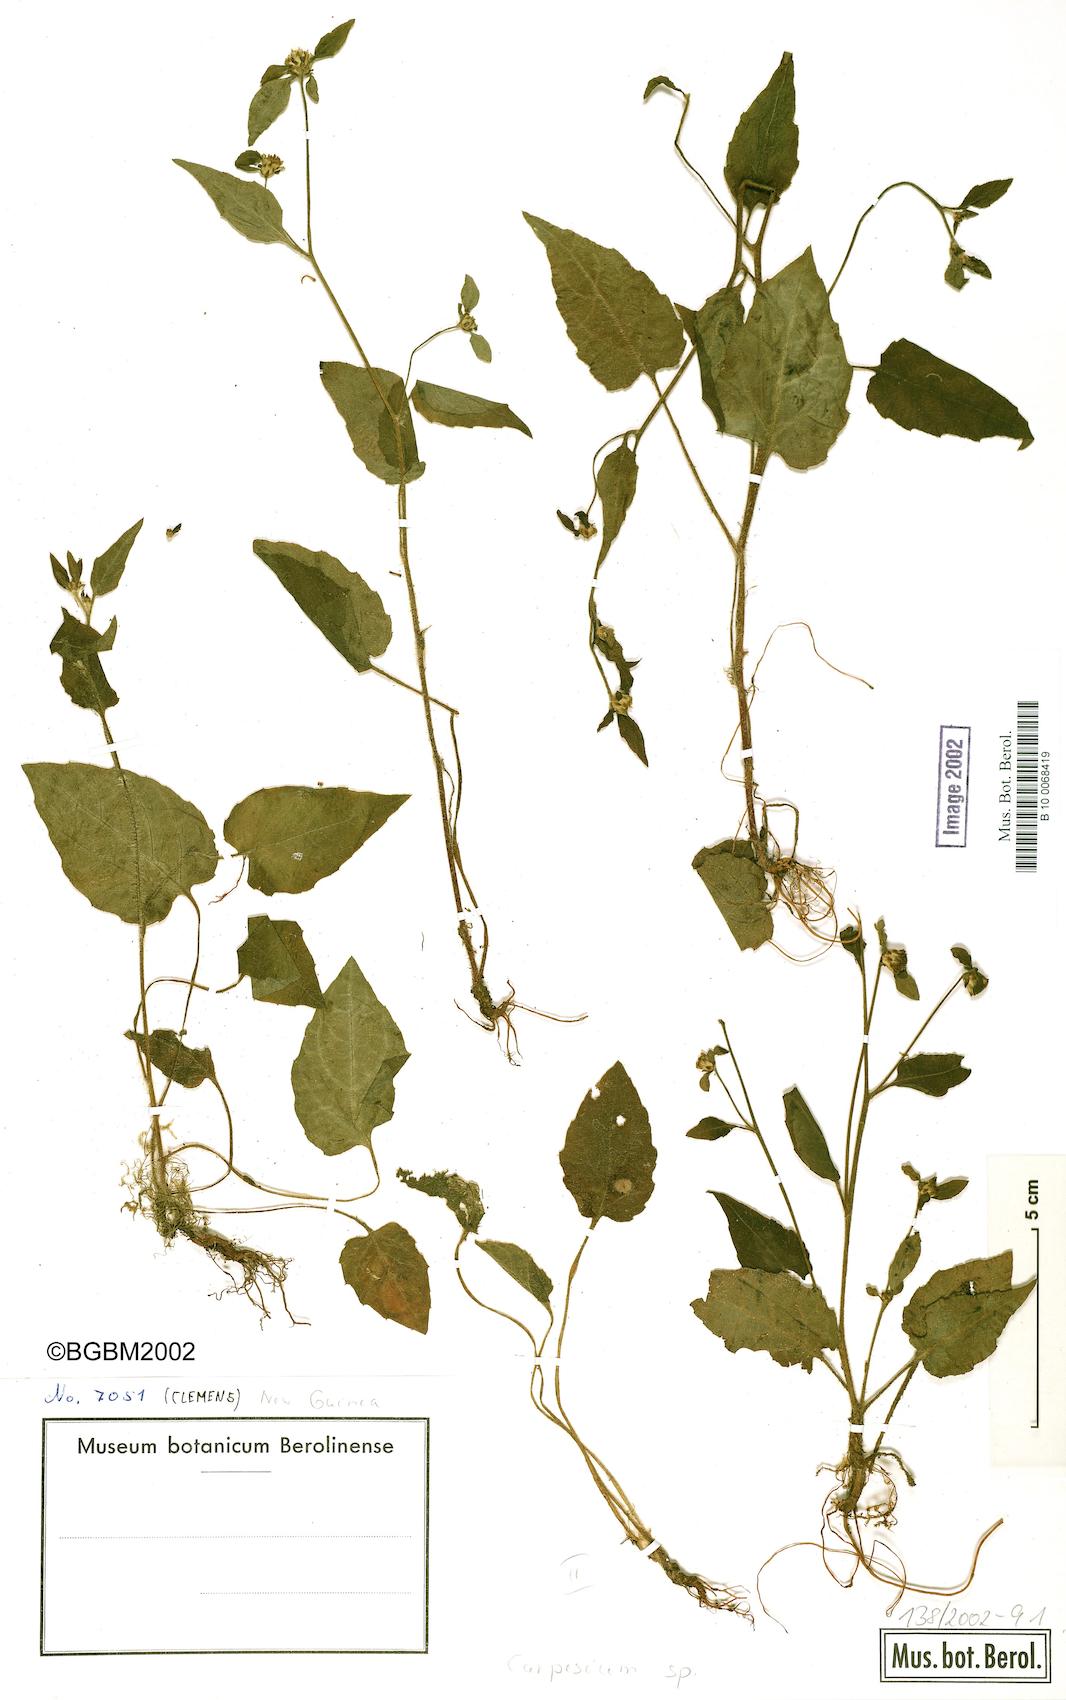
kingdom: Plantae
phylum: Tracheophyta
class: Magnoliopsida
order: Asterales
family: Asteraceae
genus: Carpesium
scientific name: Carpesium trachelifolium
